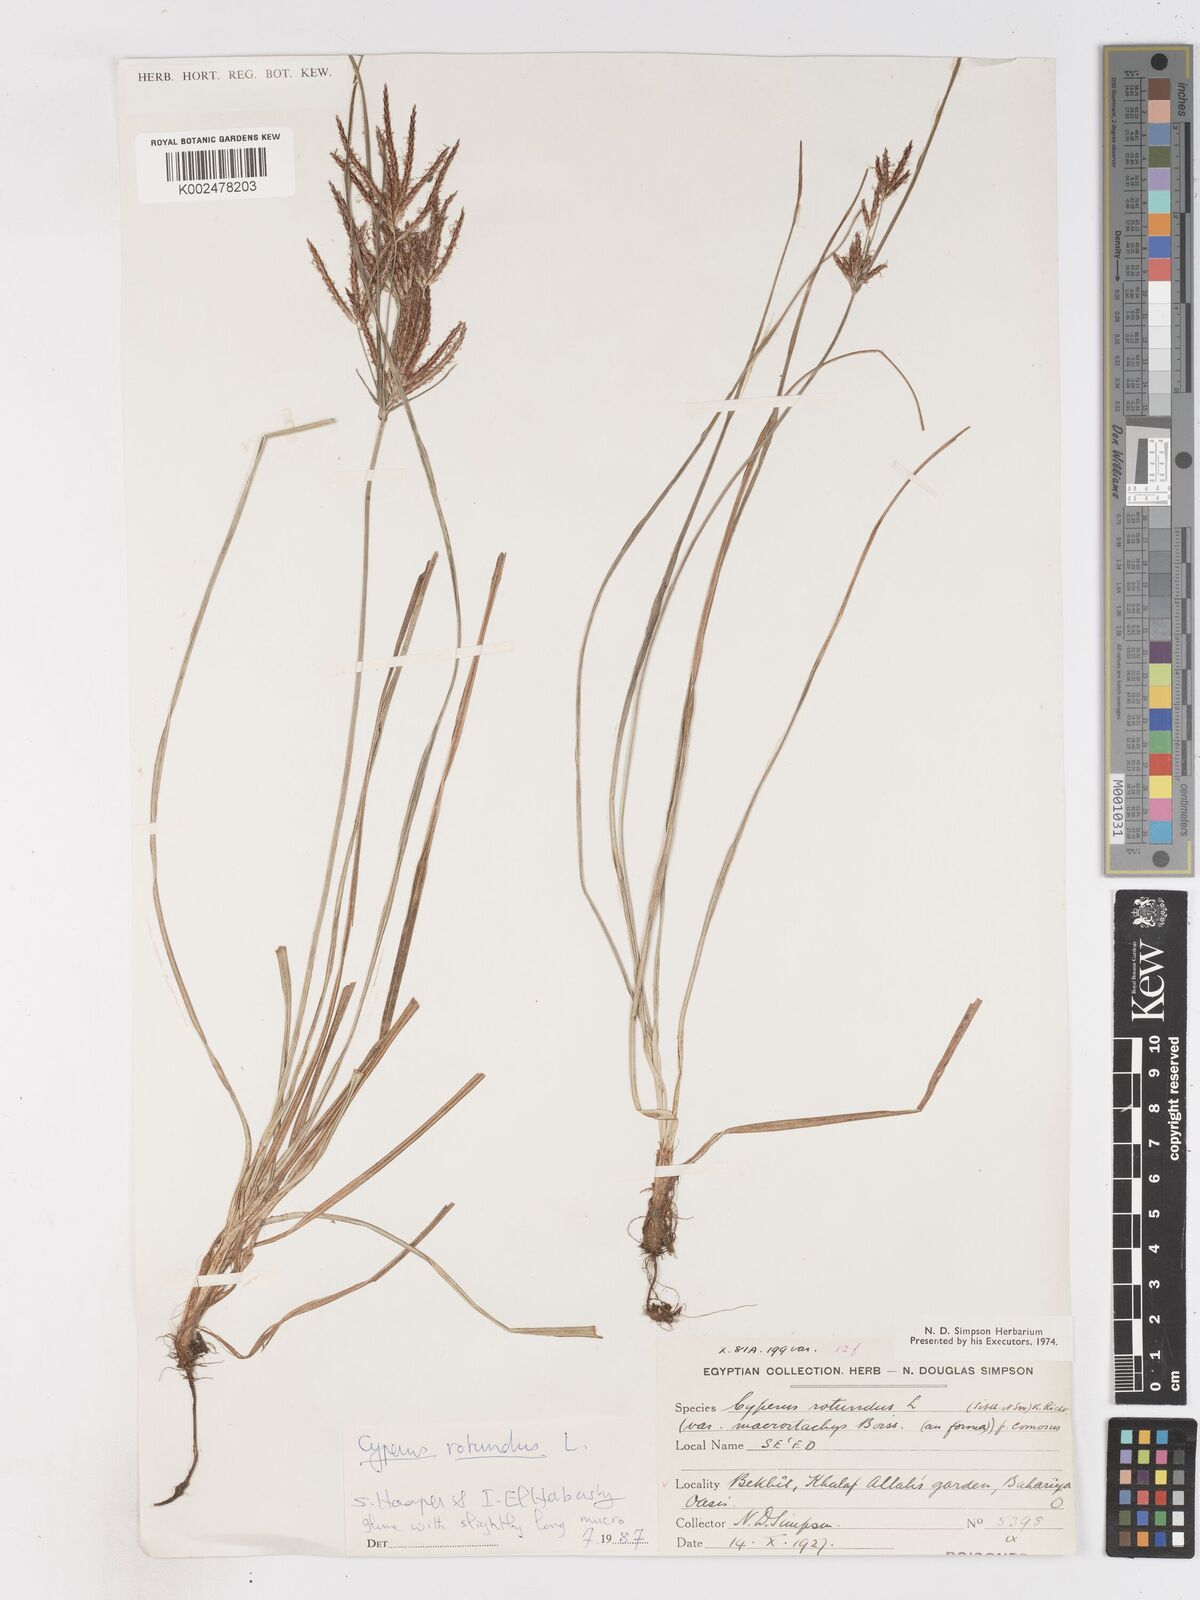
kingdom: Plantae
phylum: Tracheophyta
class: Liliopsida
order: Poales
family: Cyperaceae
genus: Cyperus
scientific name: Cyperus rotundus
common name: Nutgrass
